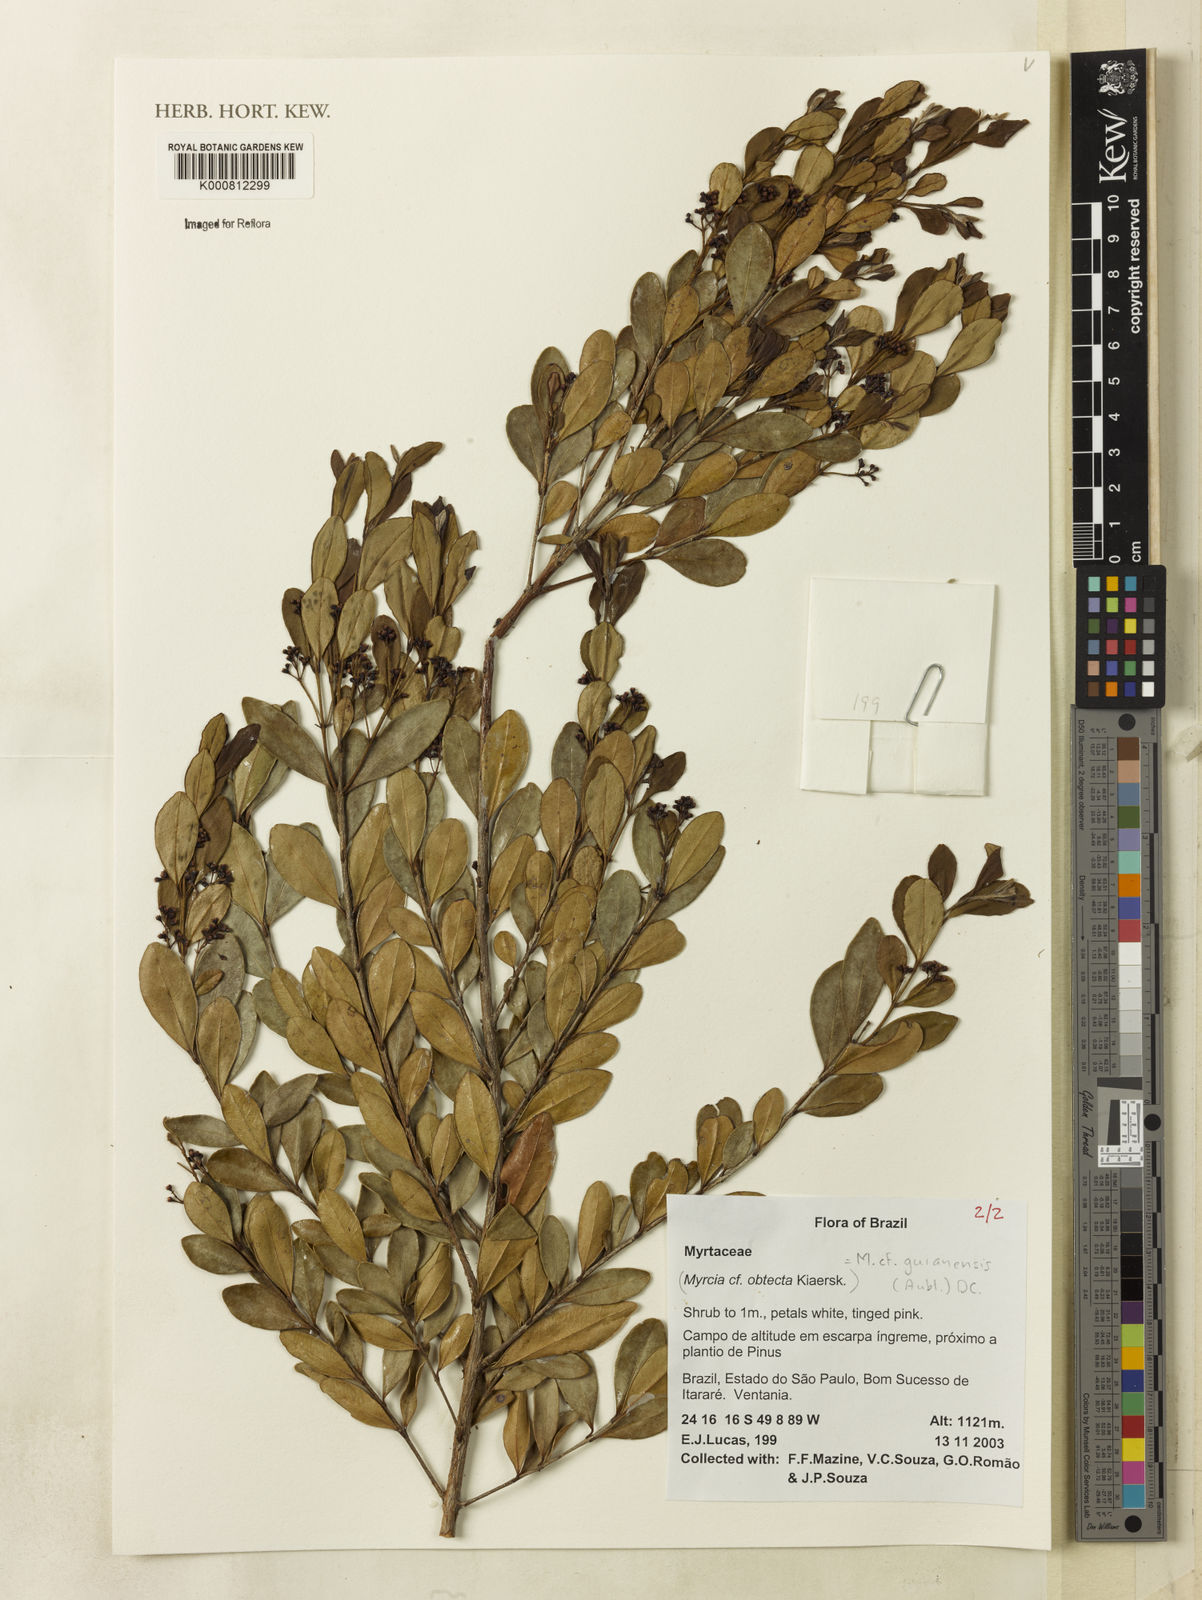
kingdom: Plantae
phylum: Tracheophyta
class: Magnoliopsida
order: Myrtales
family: Myrtaceae
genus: Myrcia
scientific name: Myrcia guianensis
